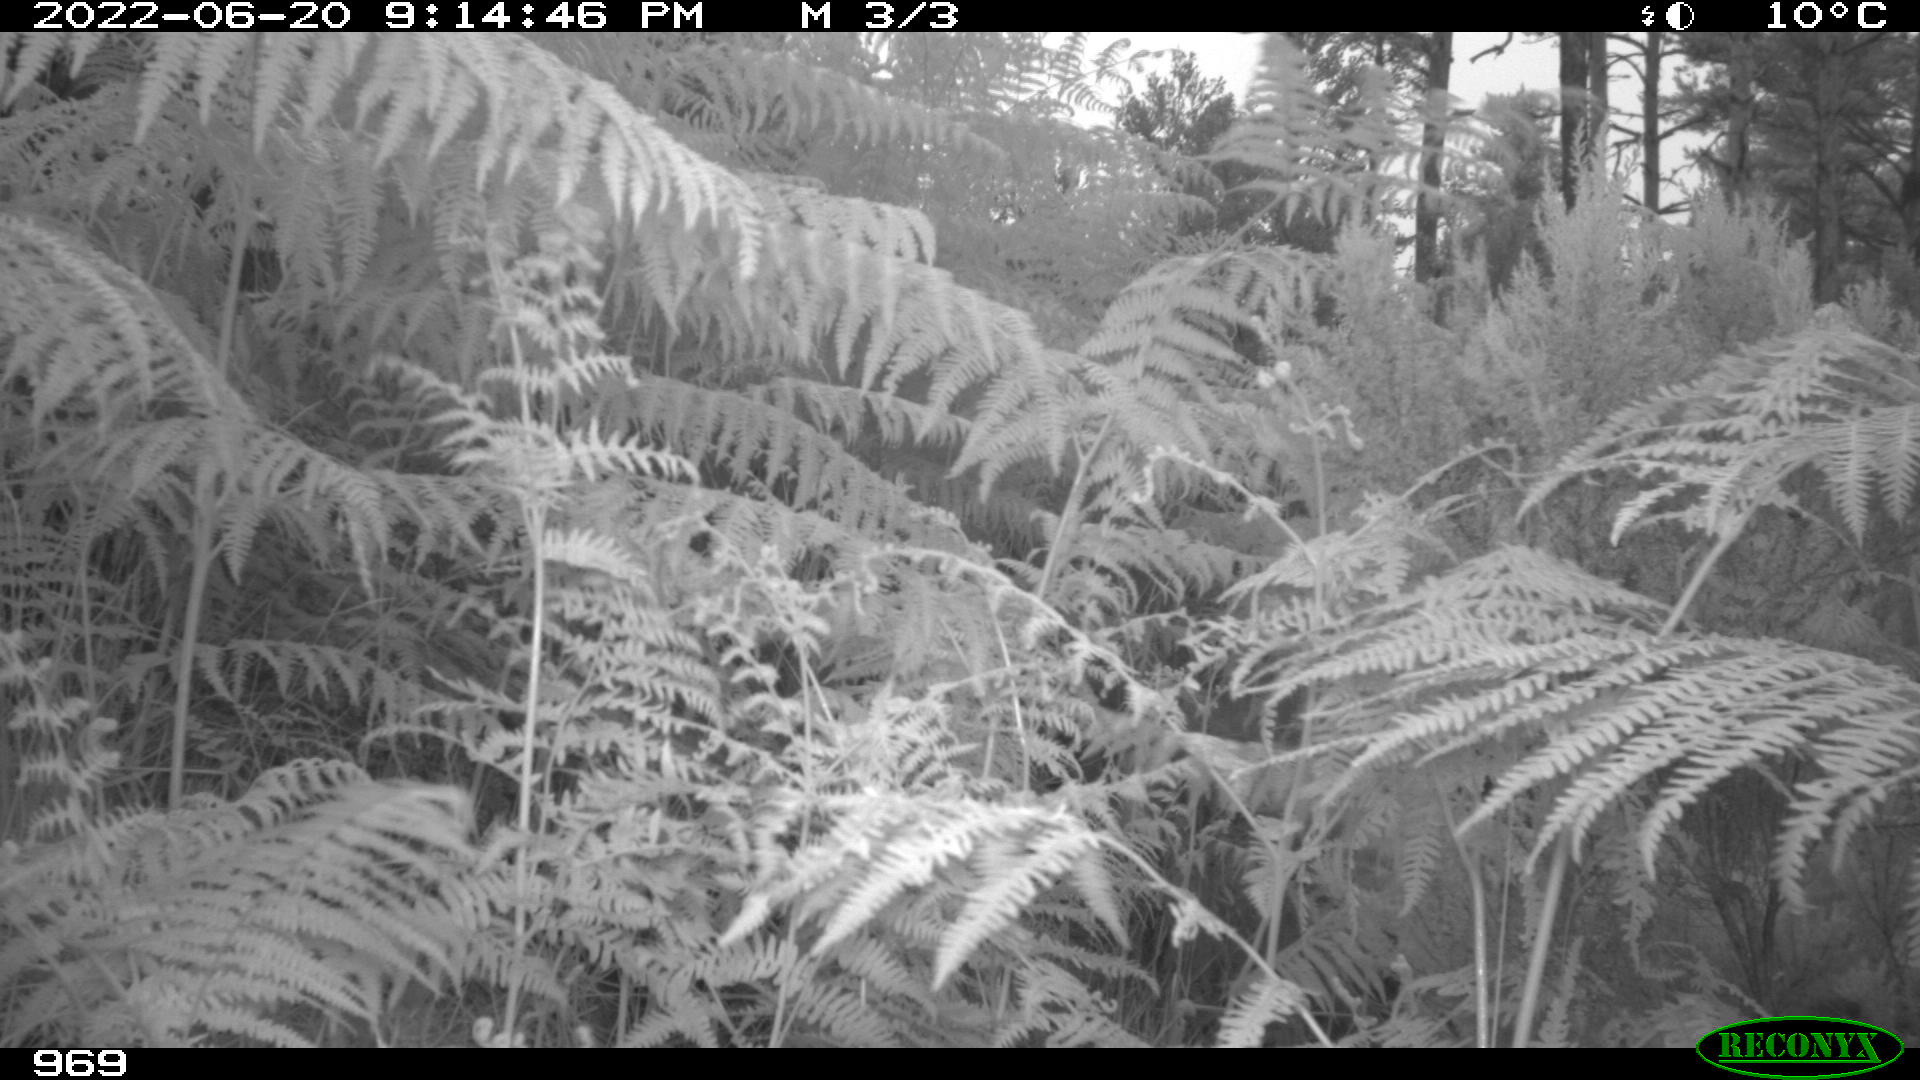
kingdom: Animalia
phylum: Chordata
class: Mammalia
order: Artiodactyla
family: Suidae
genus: Sus
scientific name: Sus scrofa
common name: Wild boar
